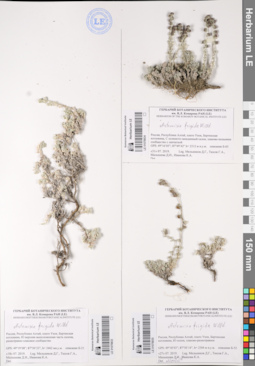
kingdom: Plantae
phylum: Tracheophyta
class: Magnoliopsida
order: Asterales
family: Asteraceae
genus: Artemisia
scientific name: Artemisia frigida
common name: Prairie sagewort
